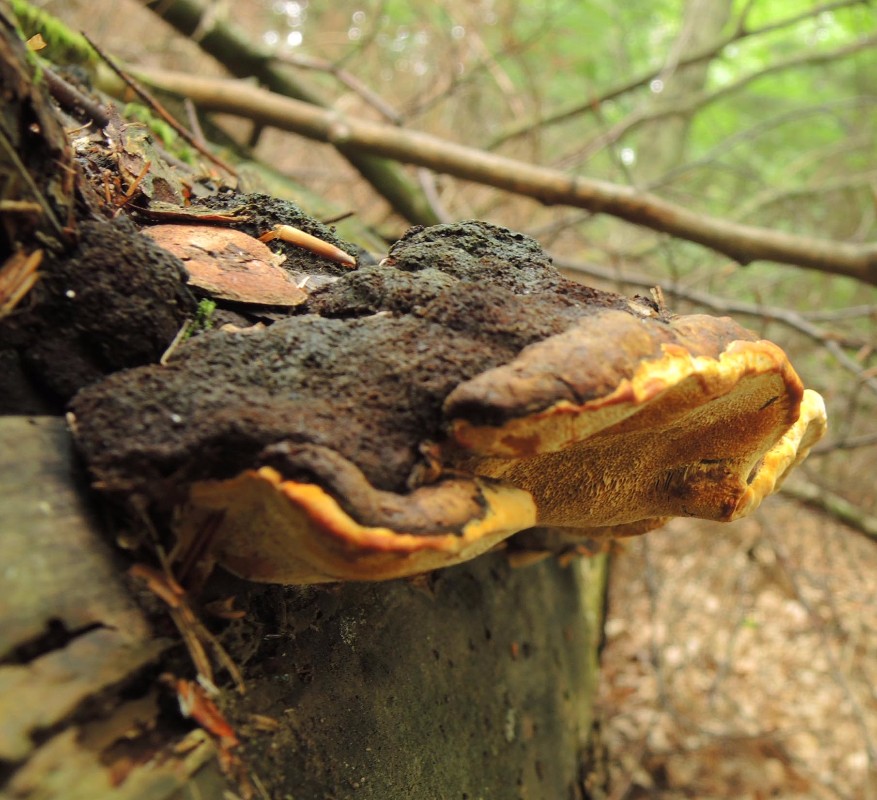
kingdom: Fungi
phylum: Basidiomycota
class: Agaricomycetes
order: Gloeophyllales
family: Gloeophyllaceae
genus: Gloeophyllum
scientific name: Gloeophyllum odoratum
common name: duftende korkhat
